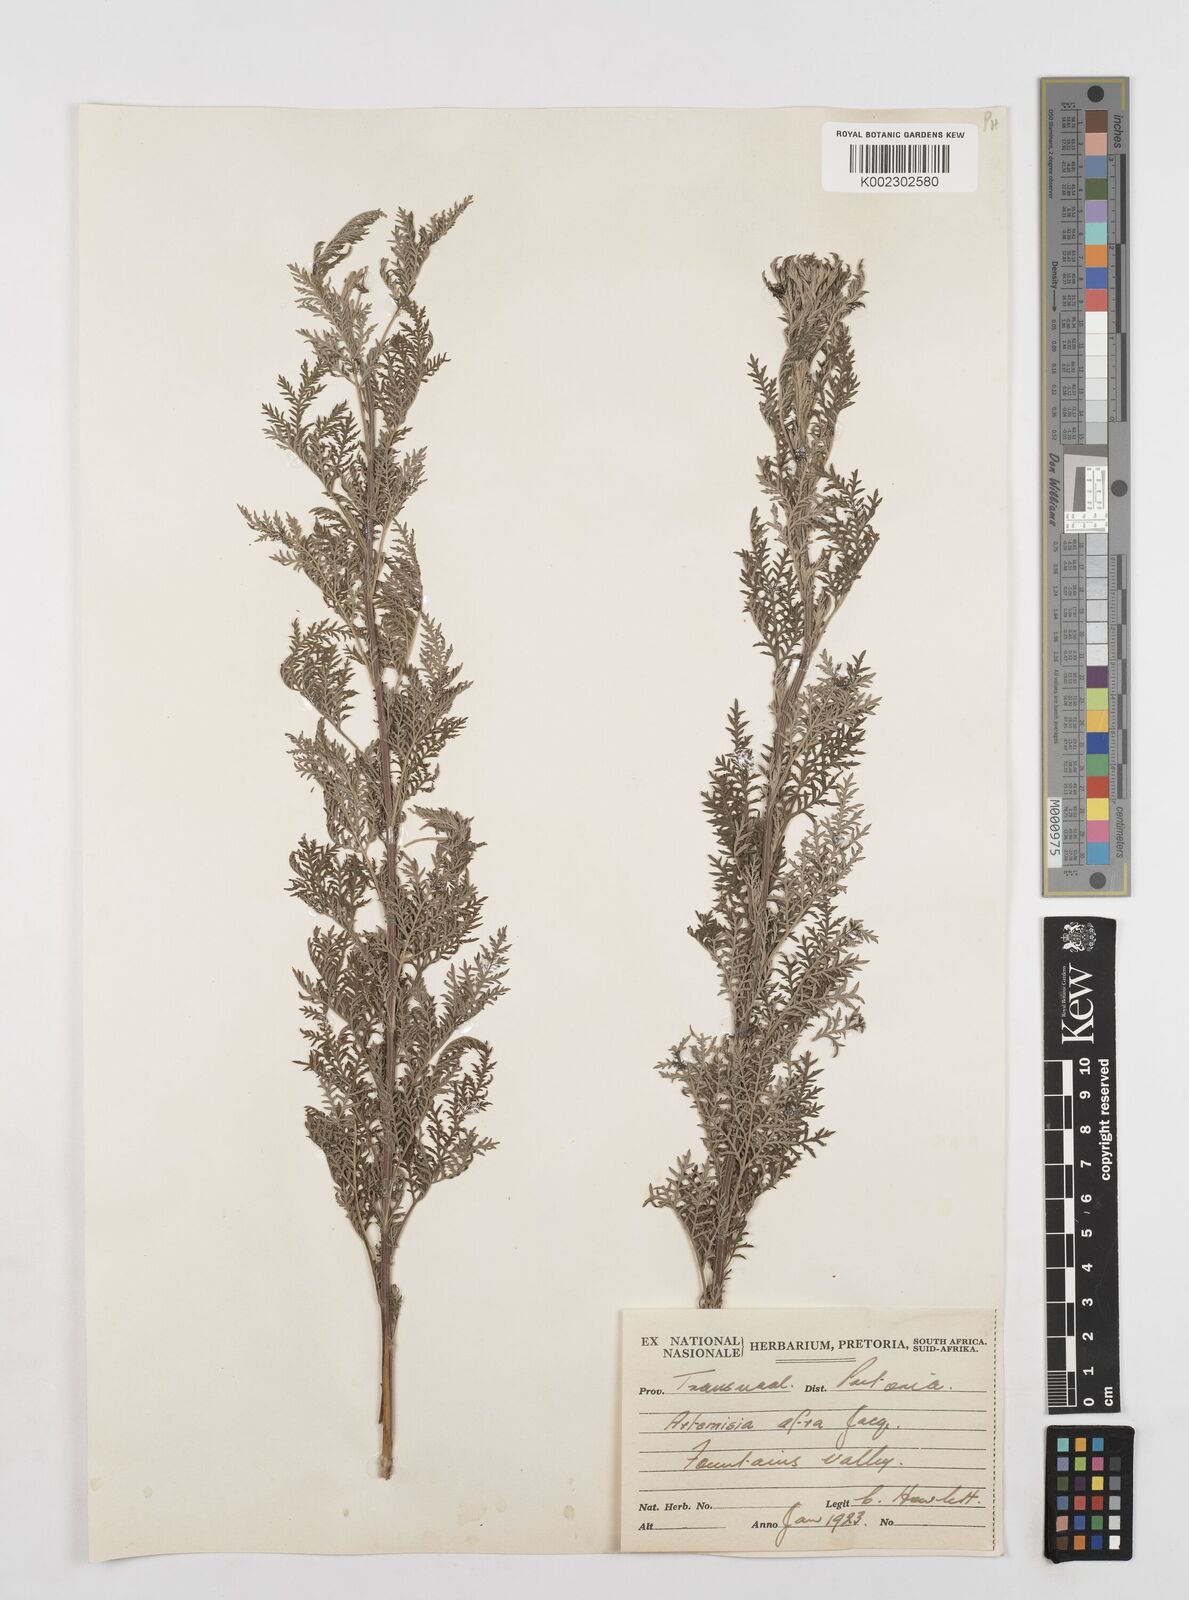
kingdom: Plantae
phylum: Tracheophyta
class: Magnoliopsida
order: Asterales
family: Asteraceae
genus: Artemisia
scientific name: Artemisia afra
